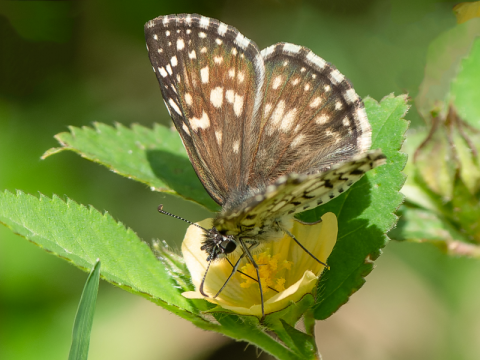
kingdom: Animalia
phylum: Arthropoda
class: Insecta
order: Lepidoptera
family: Hesperiidae
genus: Pyrgus
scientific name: Pyrgus oileus
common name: Tropical Checkered-Skipper
